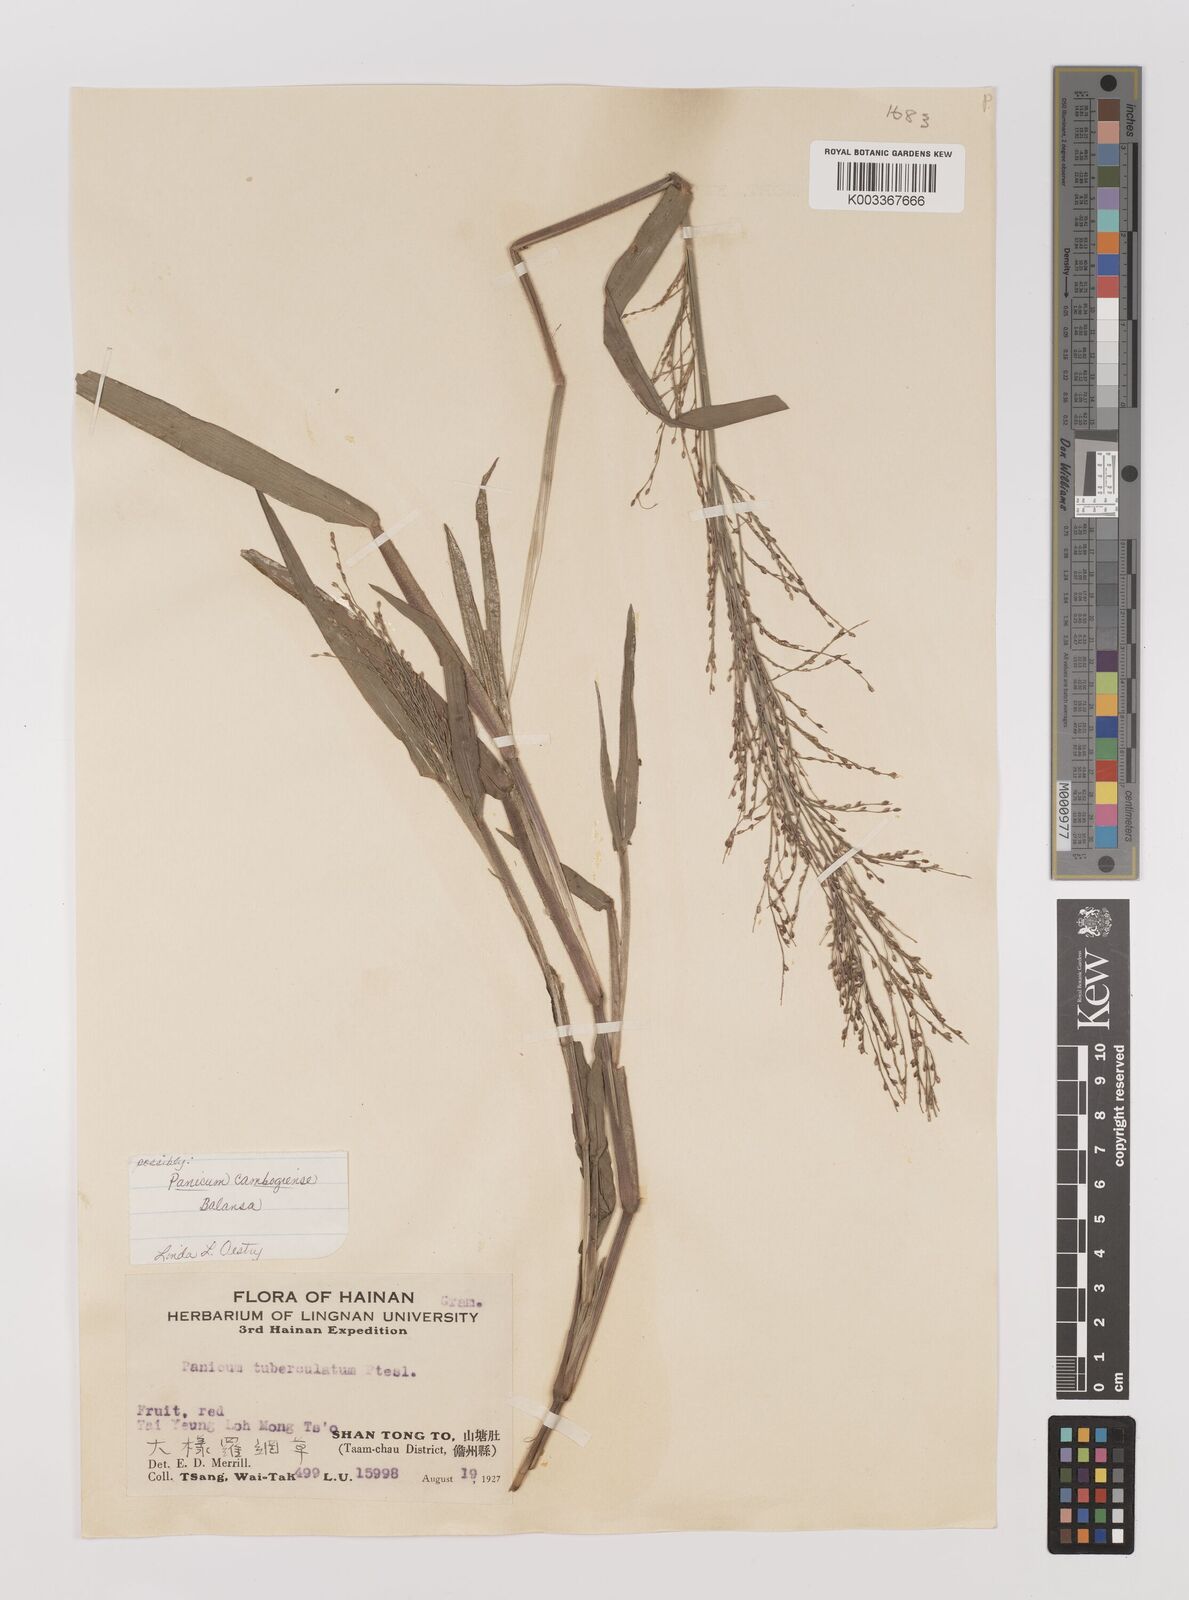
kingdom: Plantae
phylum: Tracheophyta
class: Liliopsida
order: Poales
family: Poaceae
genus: Panicum
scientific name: Panicum luzonense
